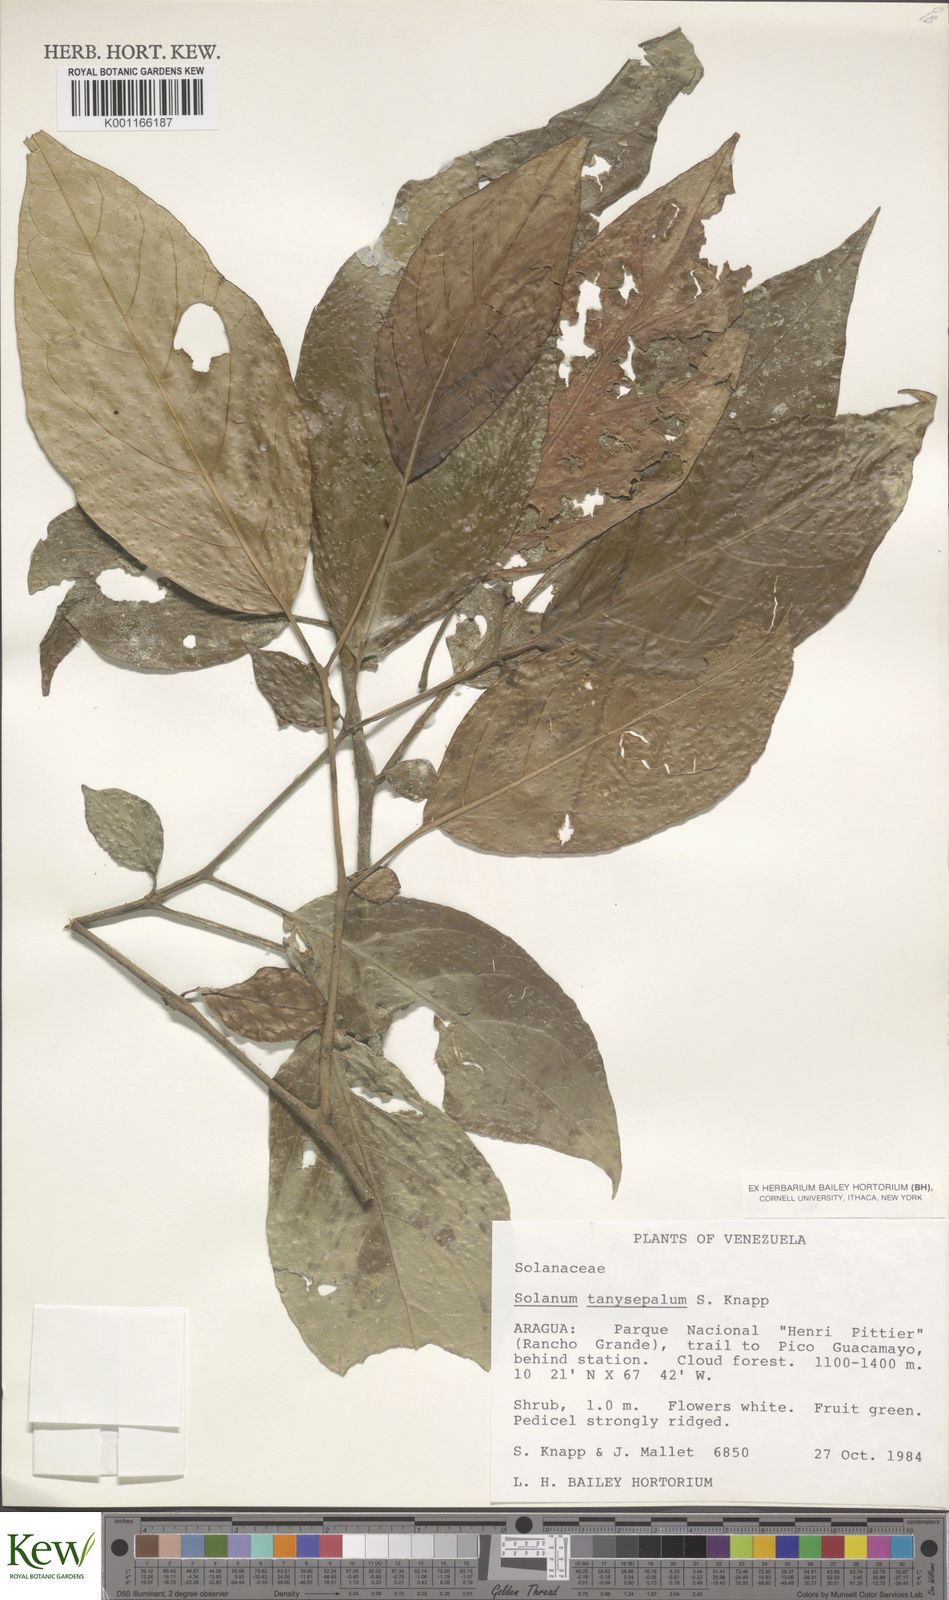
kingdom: Plantae
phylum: Tracheophyta
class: Magnoliopsida
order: Solanales
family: Solanaceae
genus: Solanum
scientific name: Solanum tanysepalum
